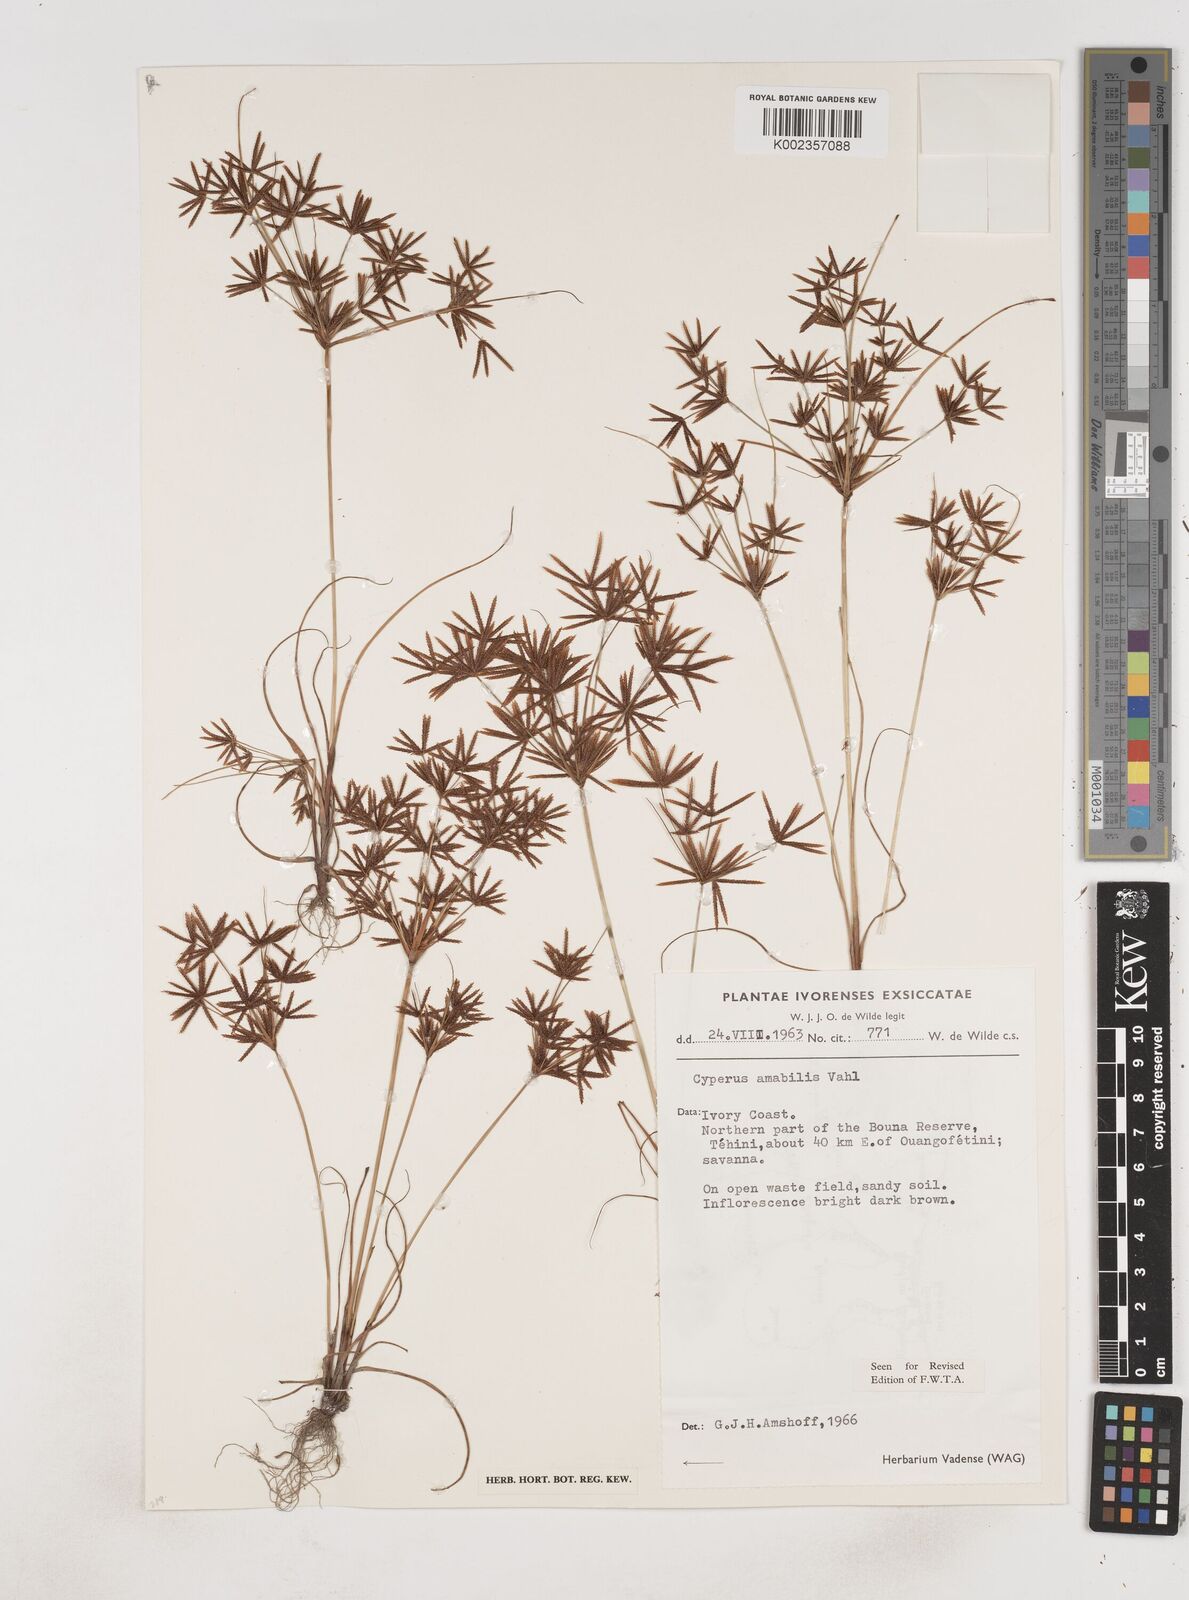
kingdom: Plantae
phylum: Tracheophyta
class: Liliopsida
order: Poales
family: Cyperaceae
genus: Cyperus
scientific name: Cyperus amabilis
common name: Foothill flat sedge
